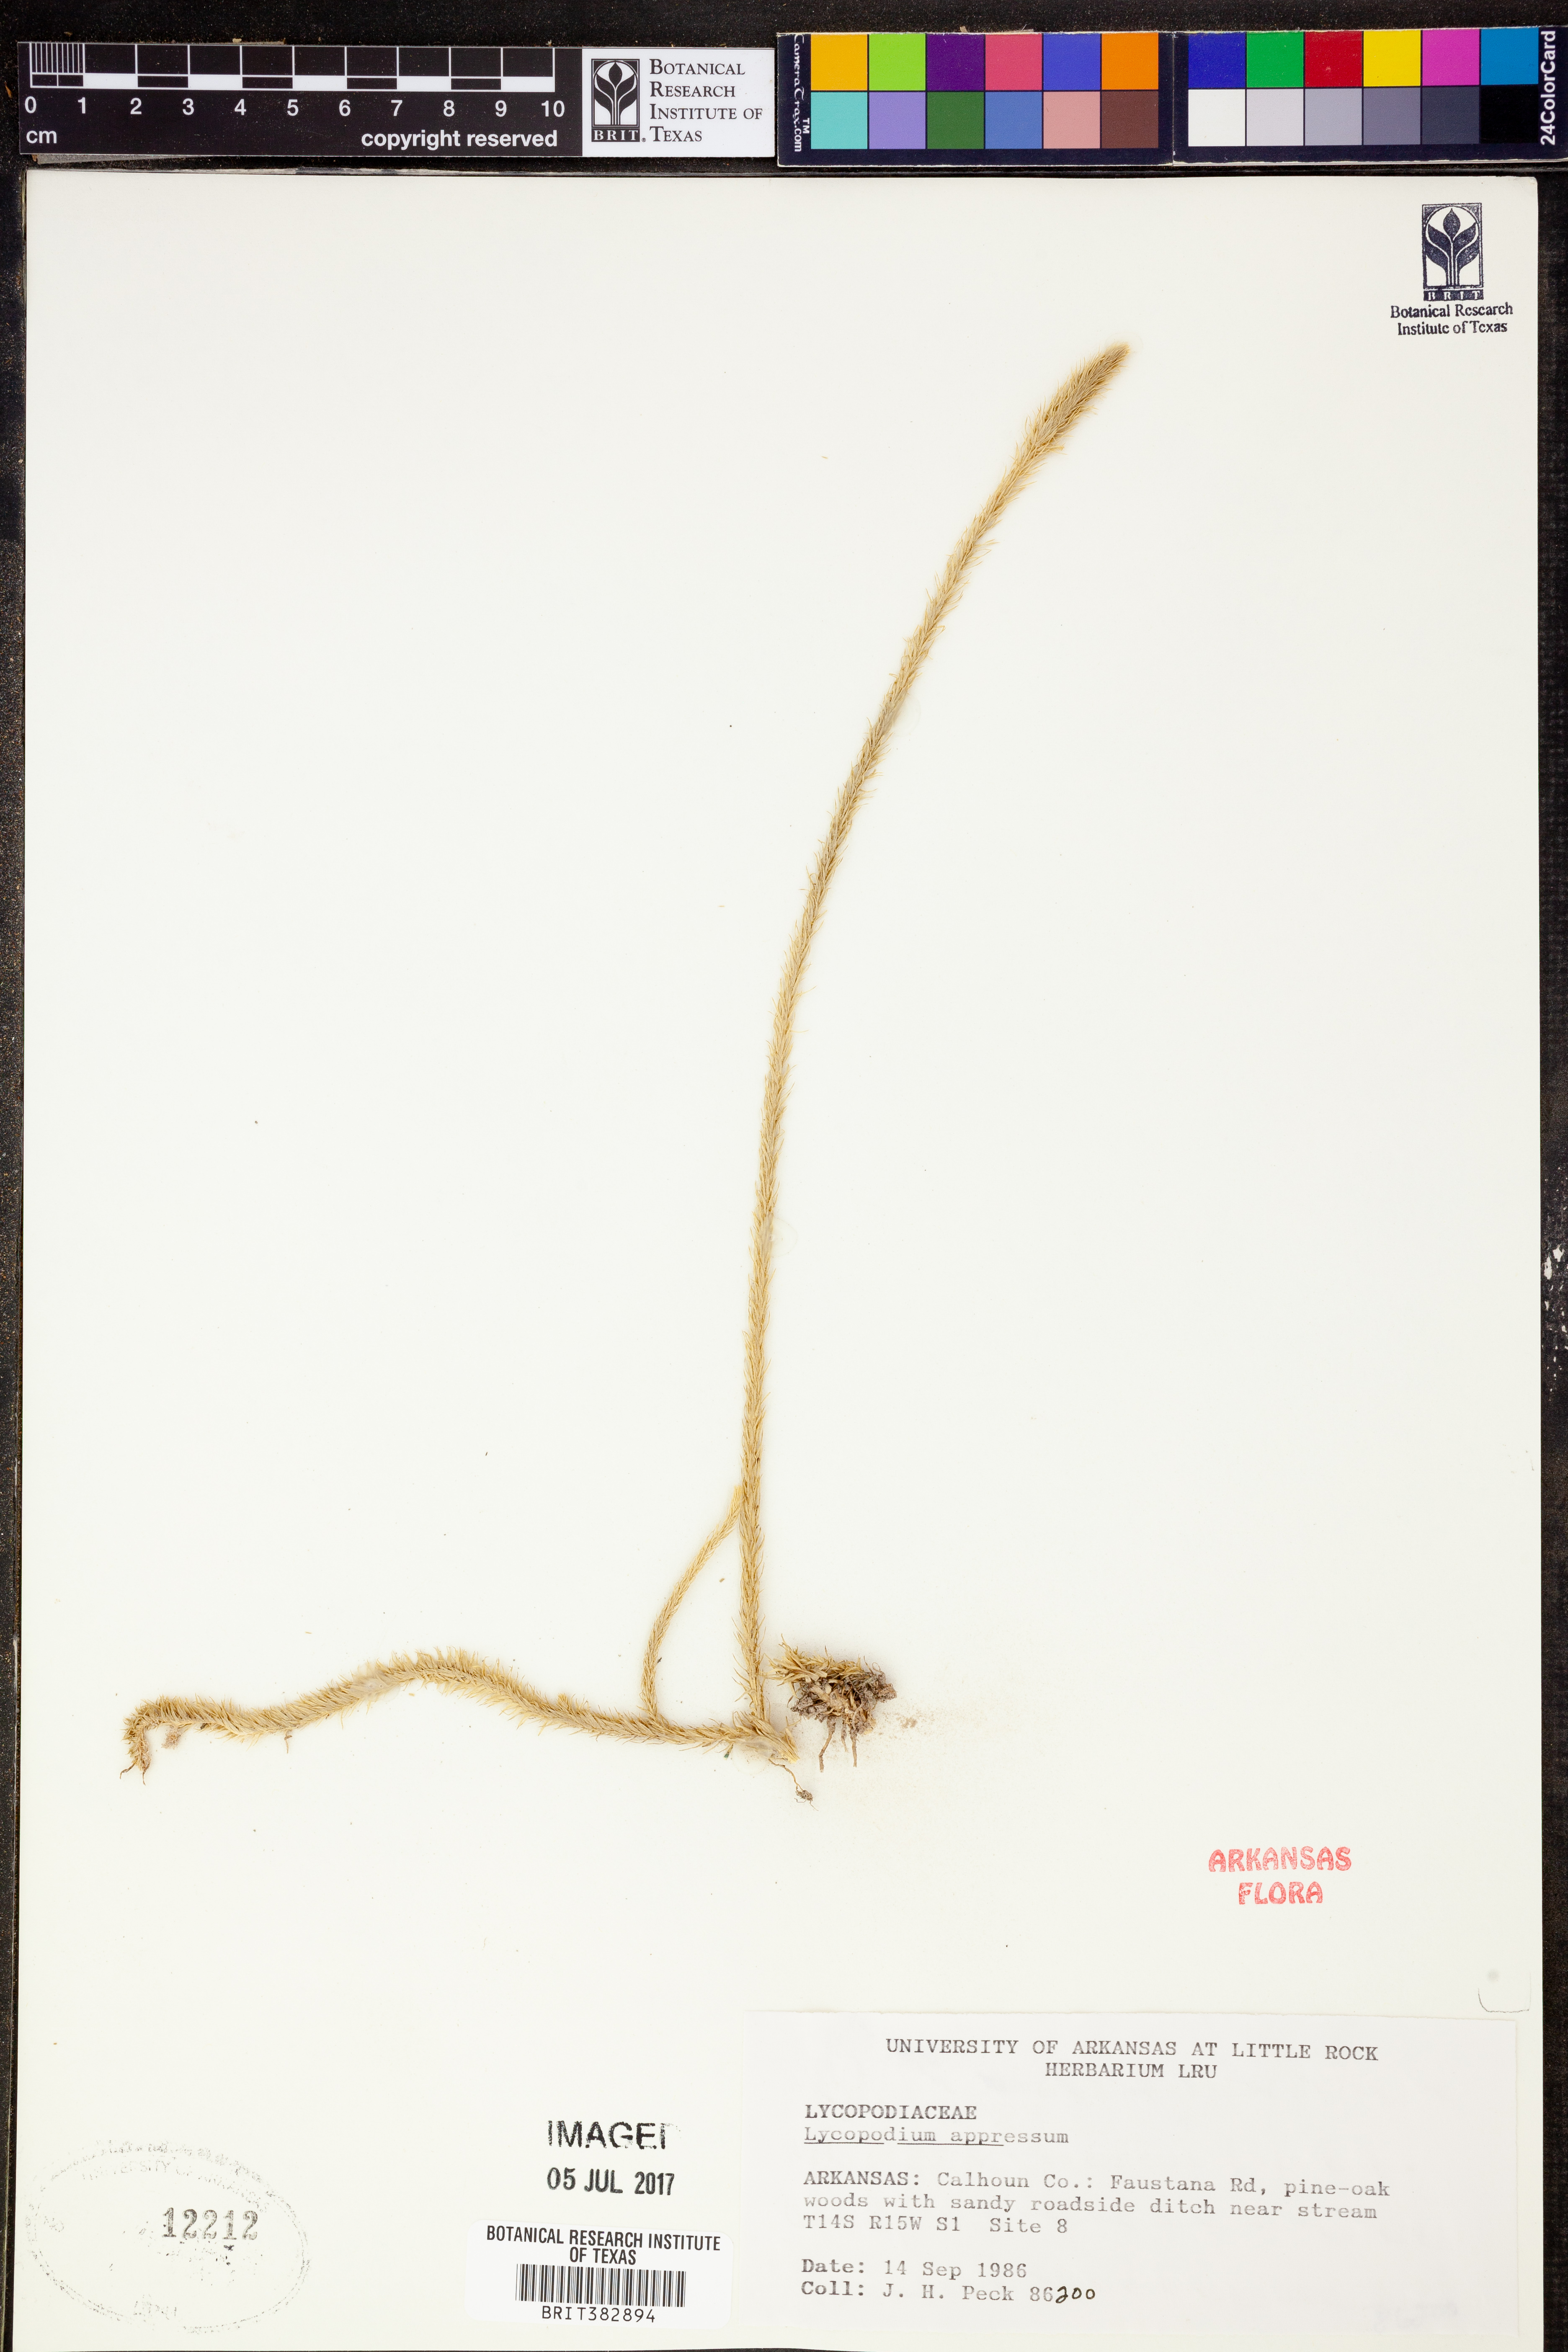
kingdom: Plantae
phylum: Tracheophyta
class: Lycopodiopsida
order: Lycopodiales
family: Lycopodiaceae
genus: Lycopodiella
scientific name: Lycopodiella appressa
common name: Appressed bog clubmoss
